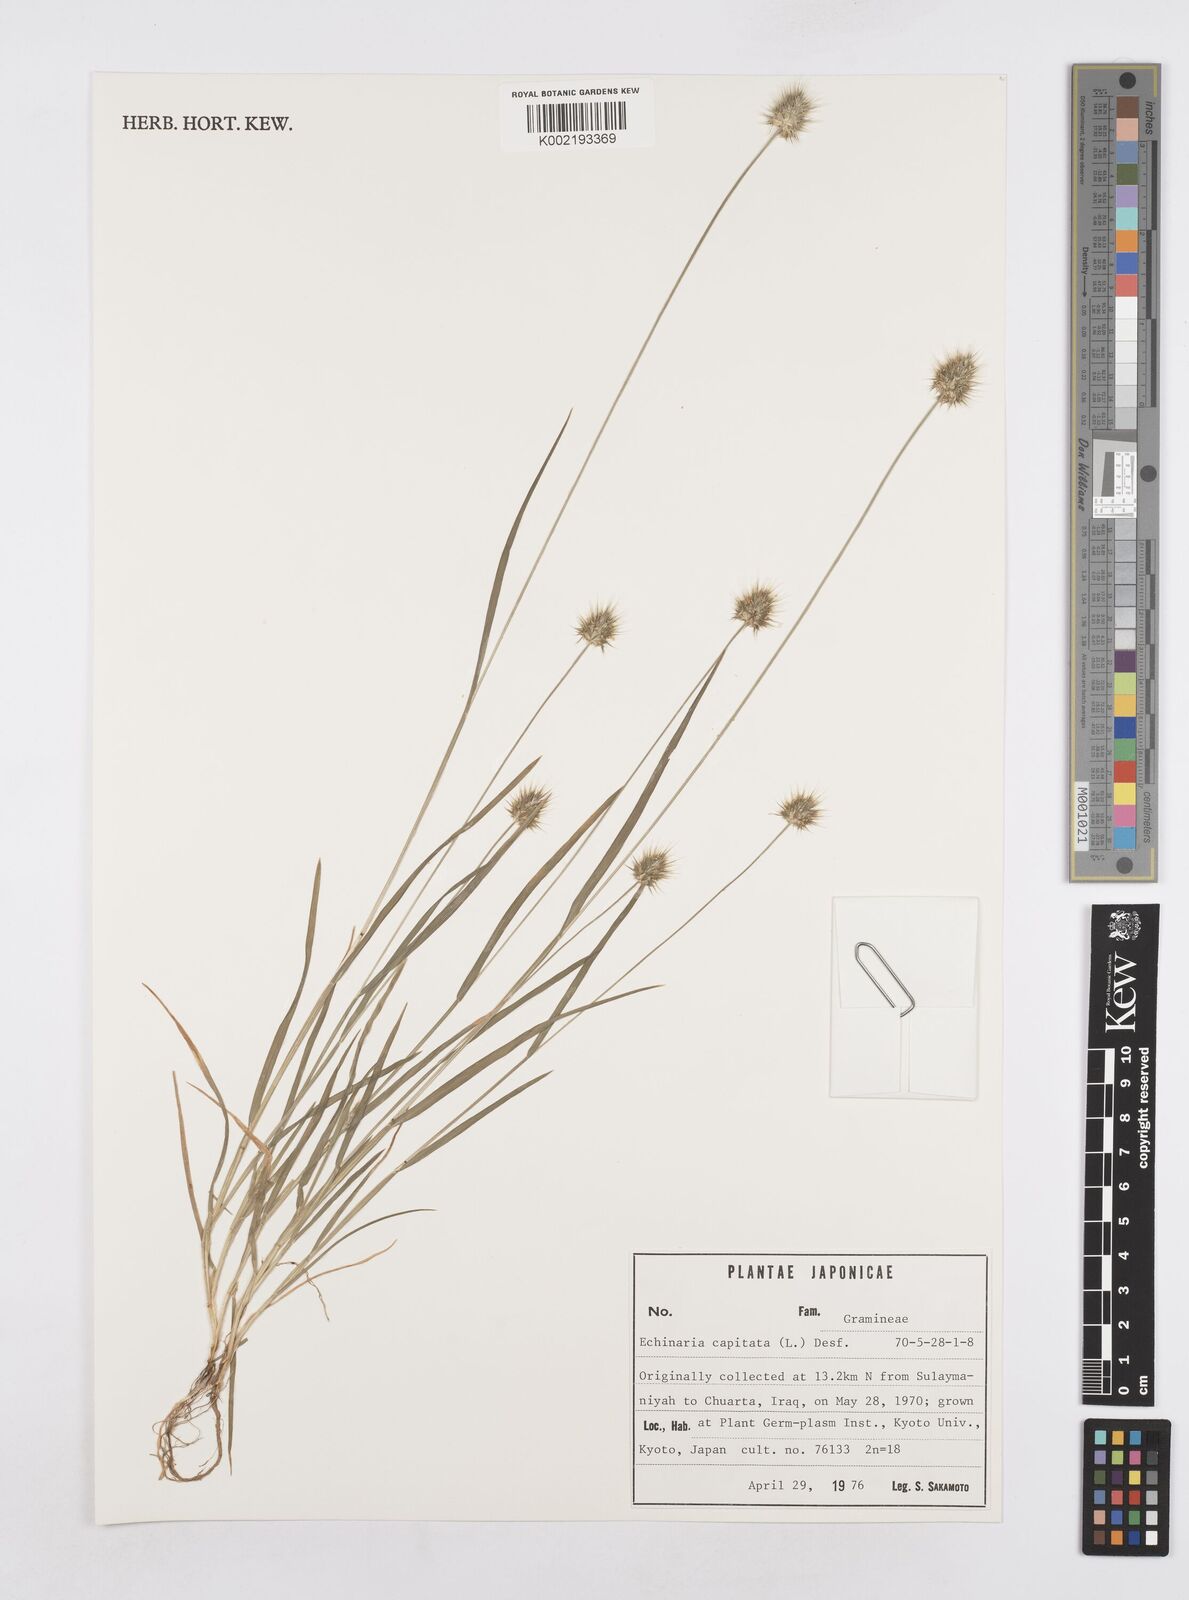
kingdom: Plantae
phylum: Tracheophyta
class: Liliopsida
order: Poales
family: Poaceae
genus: Echinaria
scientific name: Echinaria capitata
